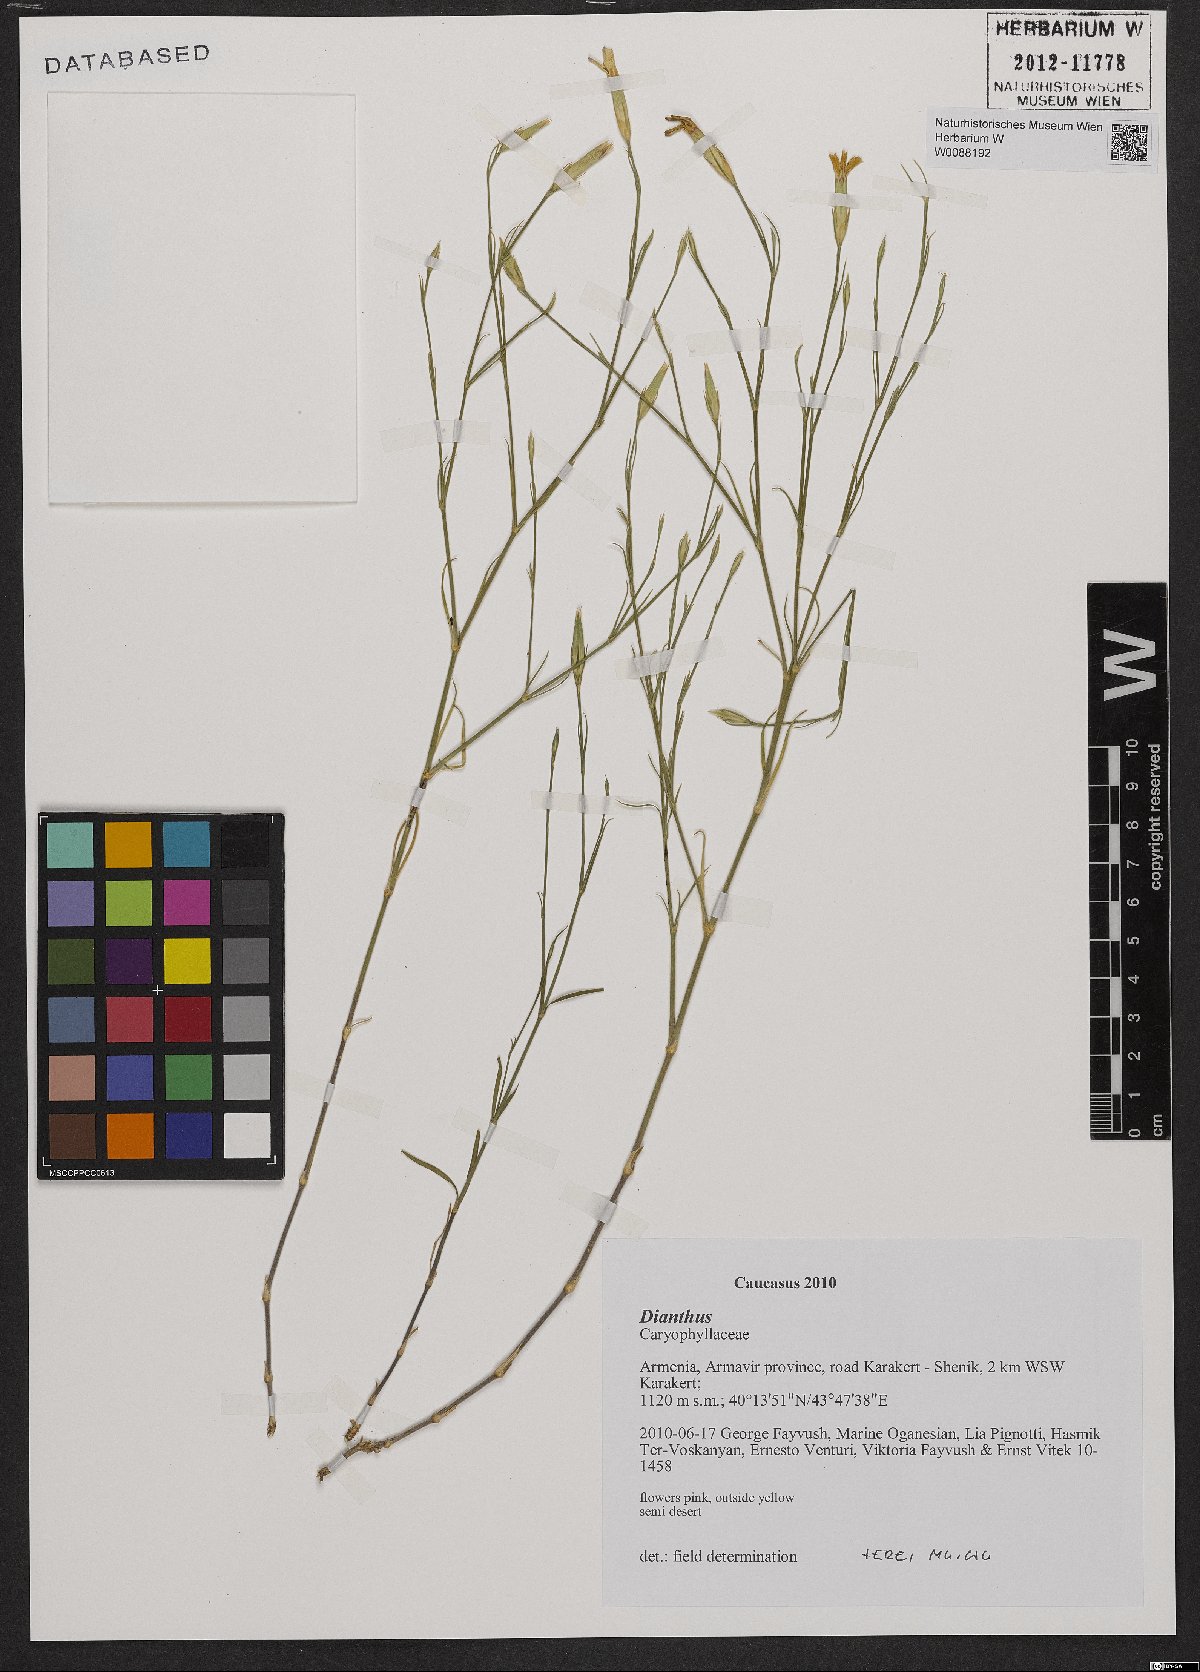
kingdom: Plantae
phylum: Tracheophyta
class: Magnoliopsida
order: Caryophyllales
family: Caryophyllaceae
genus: Dianthus
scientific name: Dianthus
